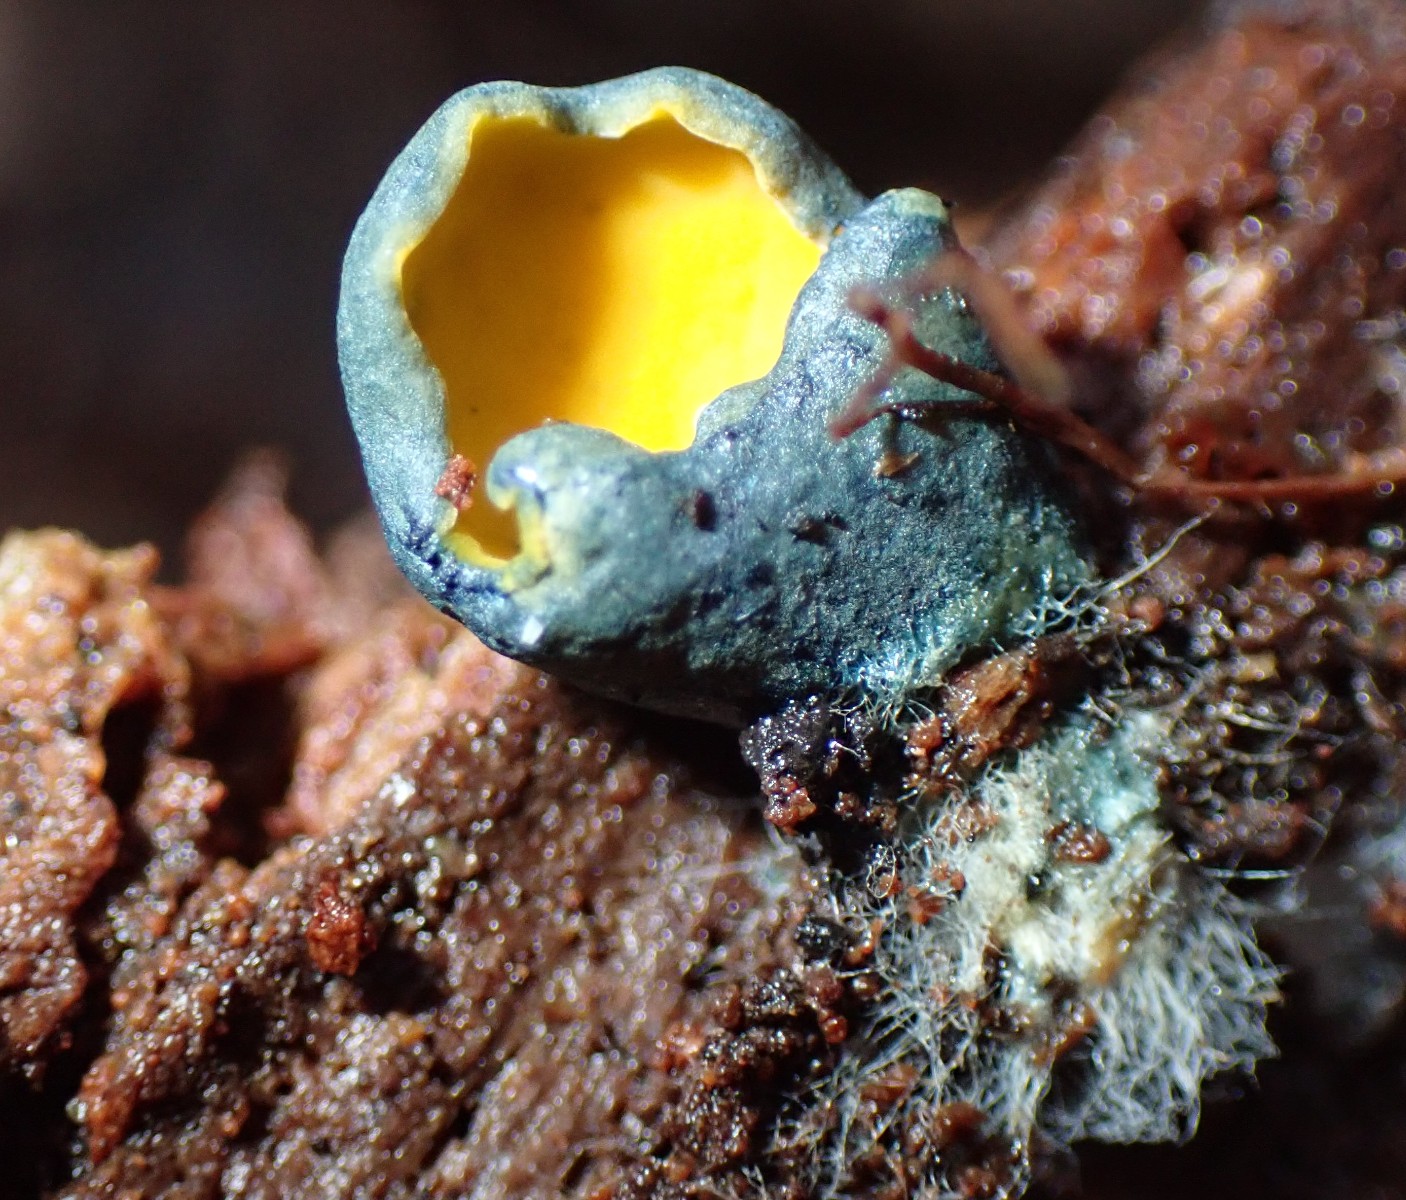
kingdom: Fungi
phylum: Ascomycota
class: Pezizomycetes
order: Pezizales
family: Caloscyphaceae
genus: Caloscypha
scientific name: Caloscypha fulgens
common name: jadebæger
